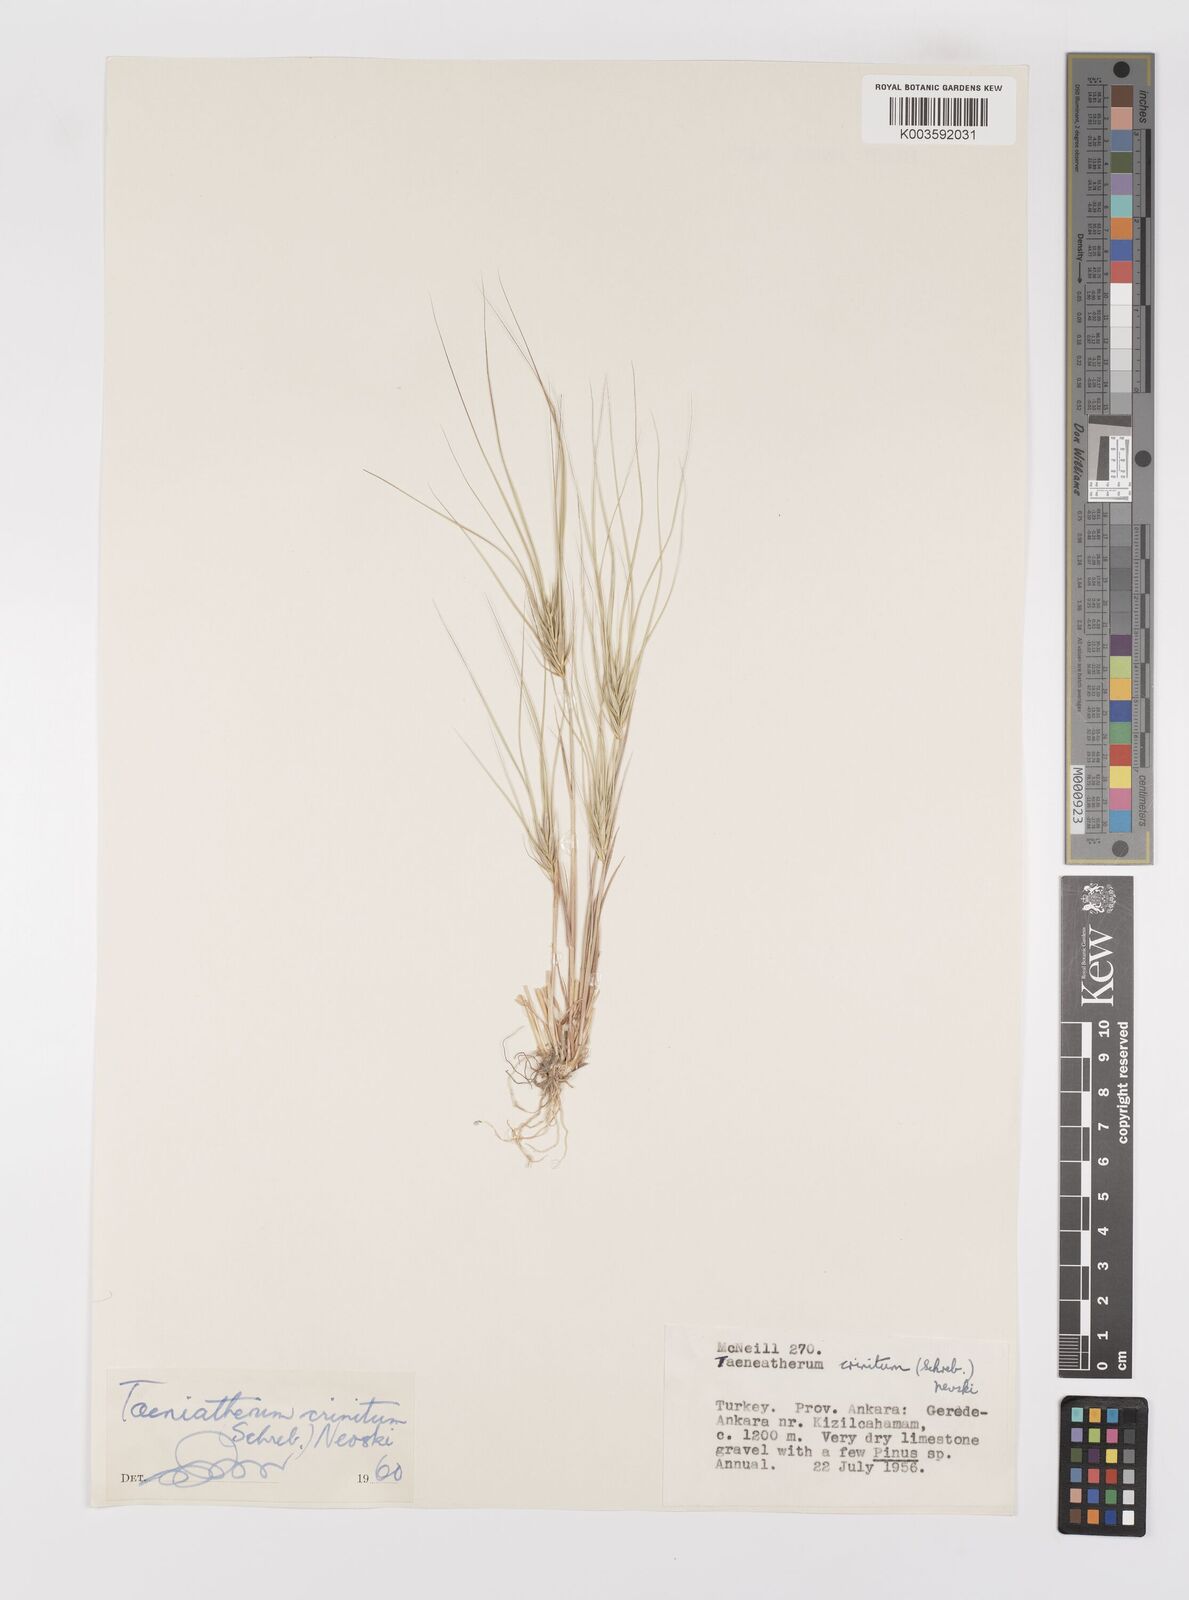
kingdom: Plantae
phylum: Tracheophyta
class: Liliopsida
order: Poales
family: Poaceae
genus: Taeniatherum
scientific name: Taeniatherum caput-medusae
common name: Medusahead
